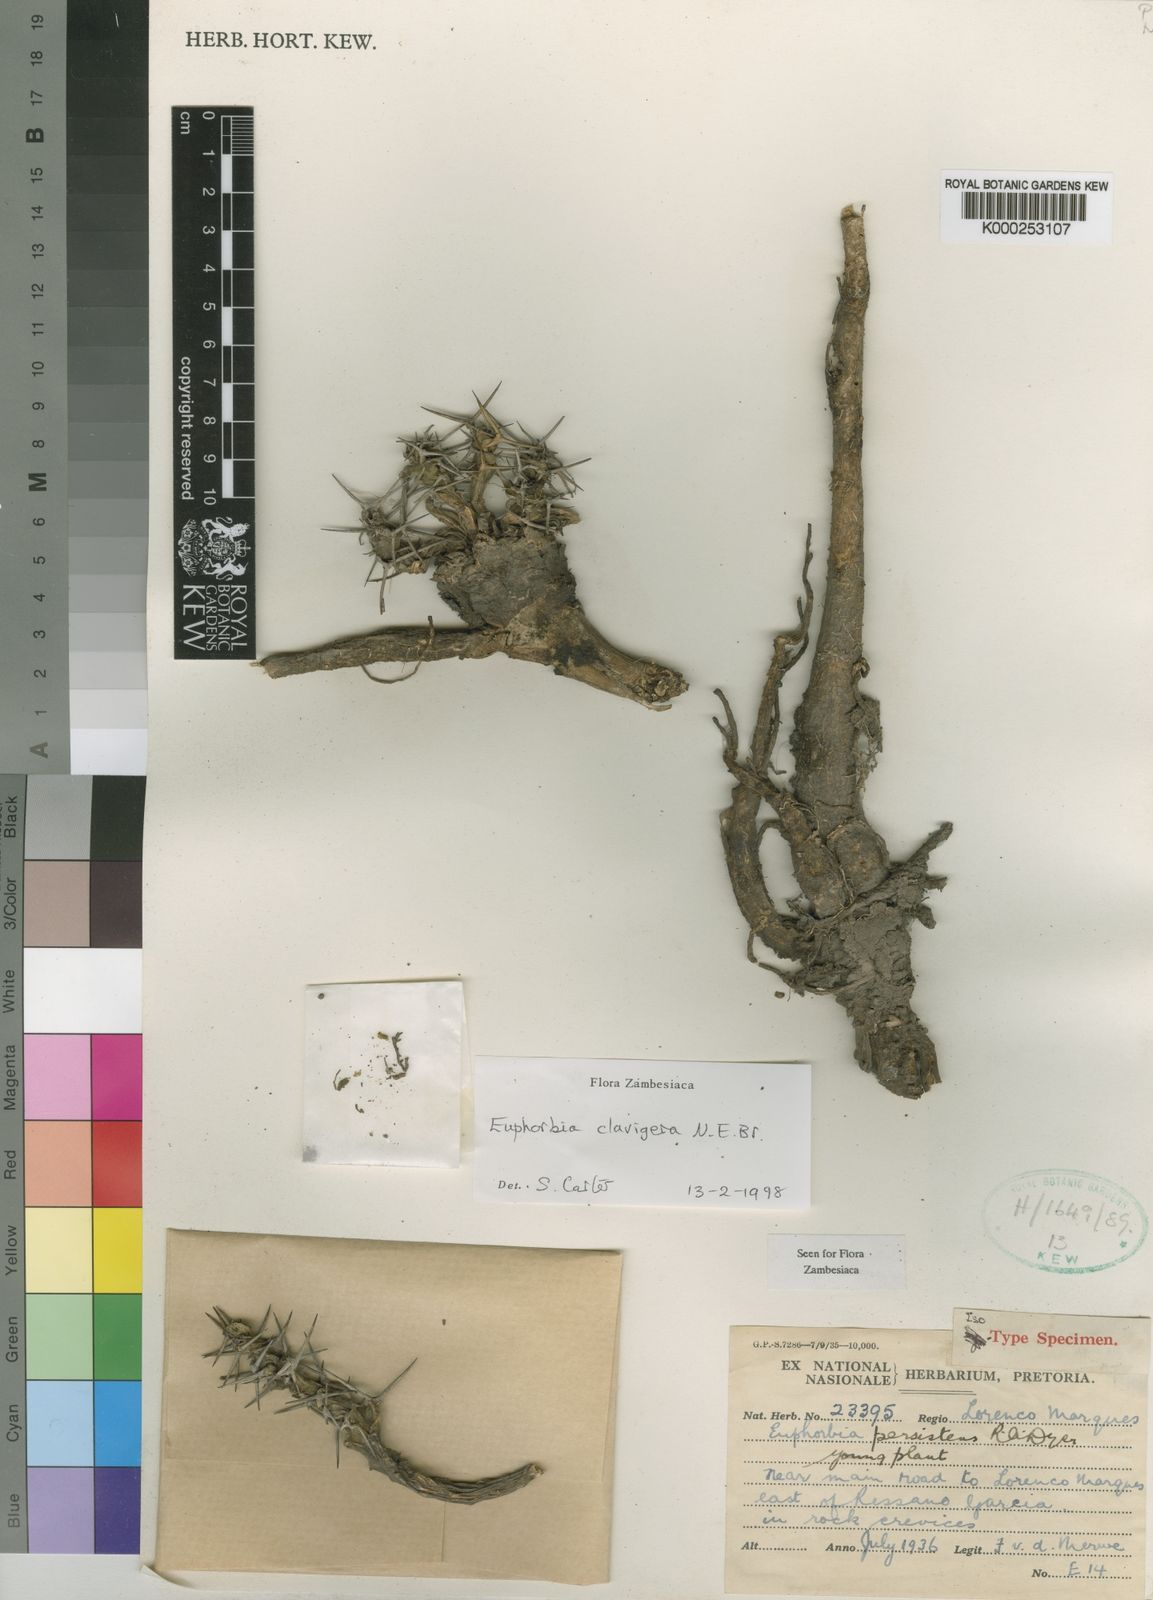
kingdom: Plantae
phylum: Tracheophyta
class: Magnoliopsida
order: Malpighiales
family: Euphorbiaceae
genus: Euphorbia
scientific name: Euphorbia clavigera
